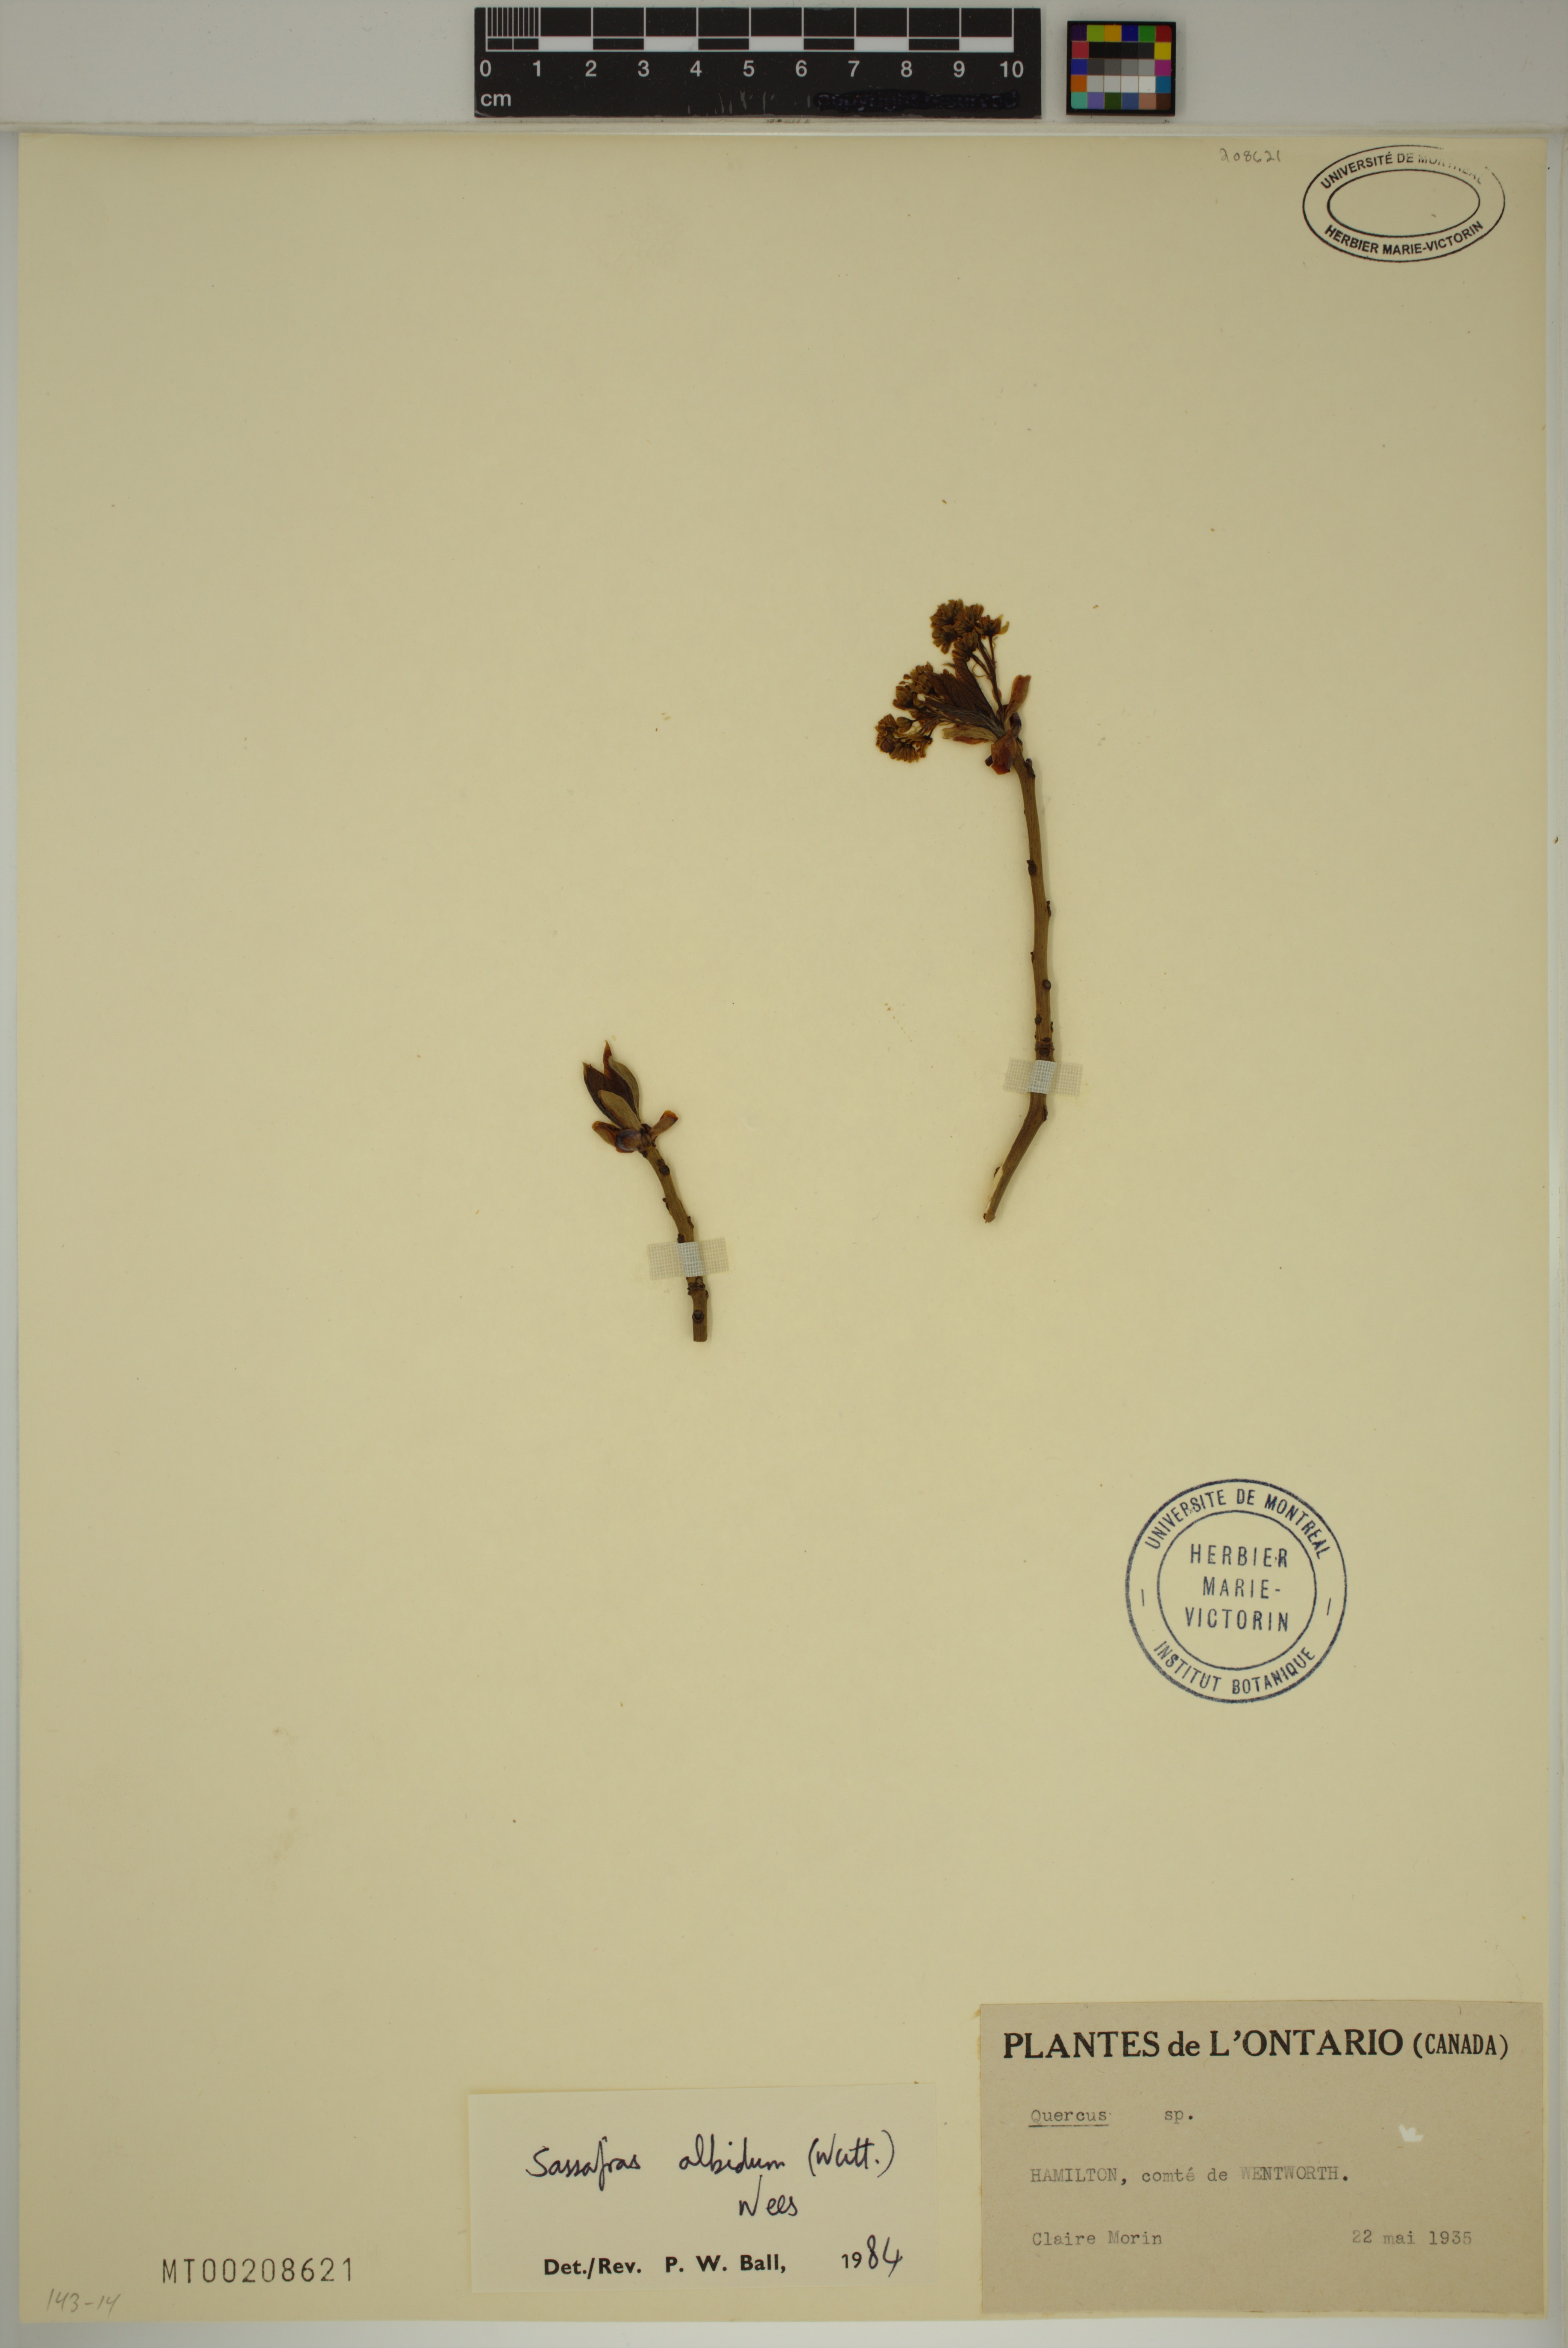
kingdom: Plantae
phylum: Tracheophyta
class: Magnoliopsida
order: Laurales
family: Lauraceae
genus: Sassafras
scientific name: Sassafras albidum
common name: Sassafras
